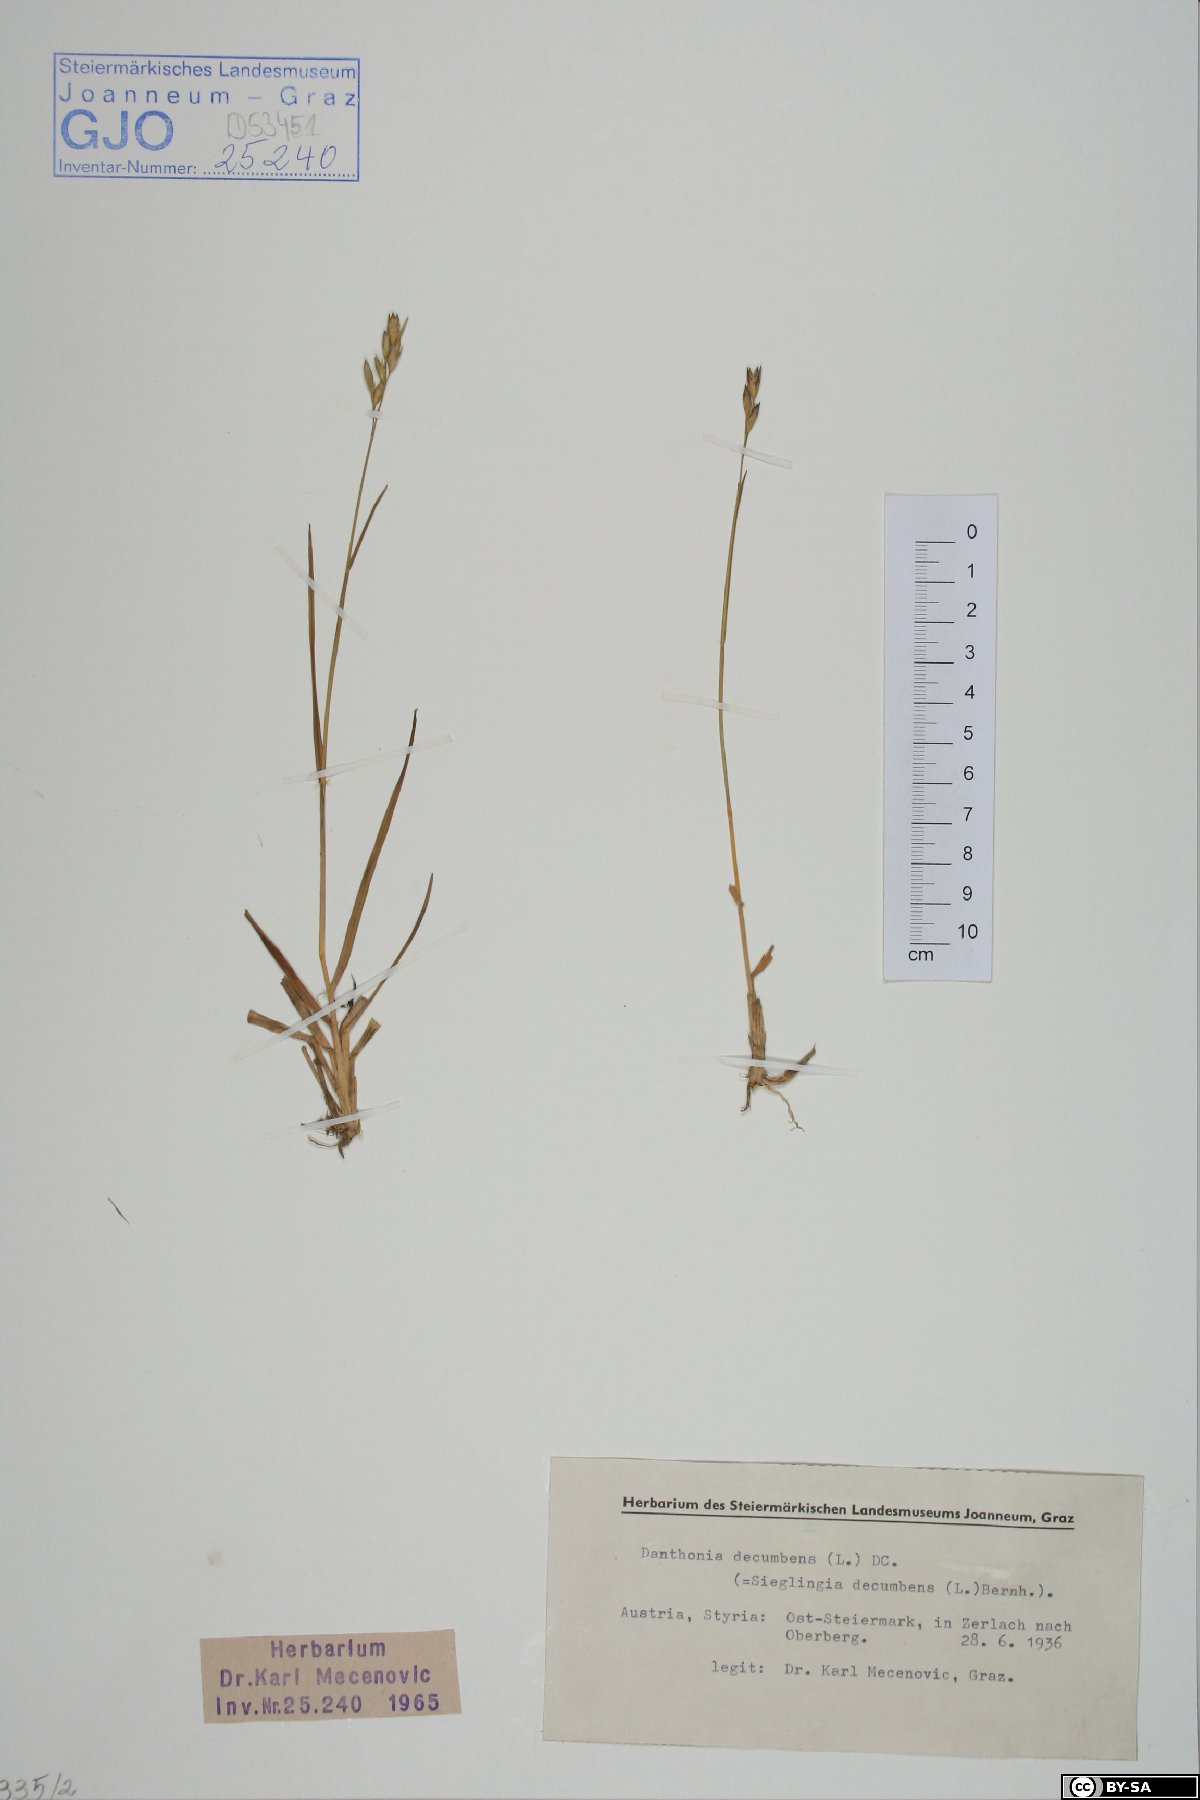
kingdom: Plantae
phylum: Tracheophyta
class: Liliopsida
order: Poales
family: Poaceae
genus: Danthonia
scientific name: Danthonia decumbens
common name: Common heathgrass
